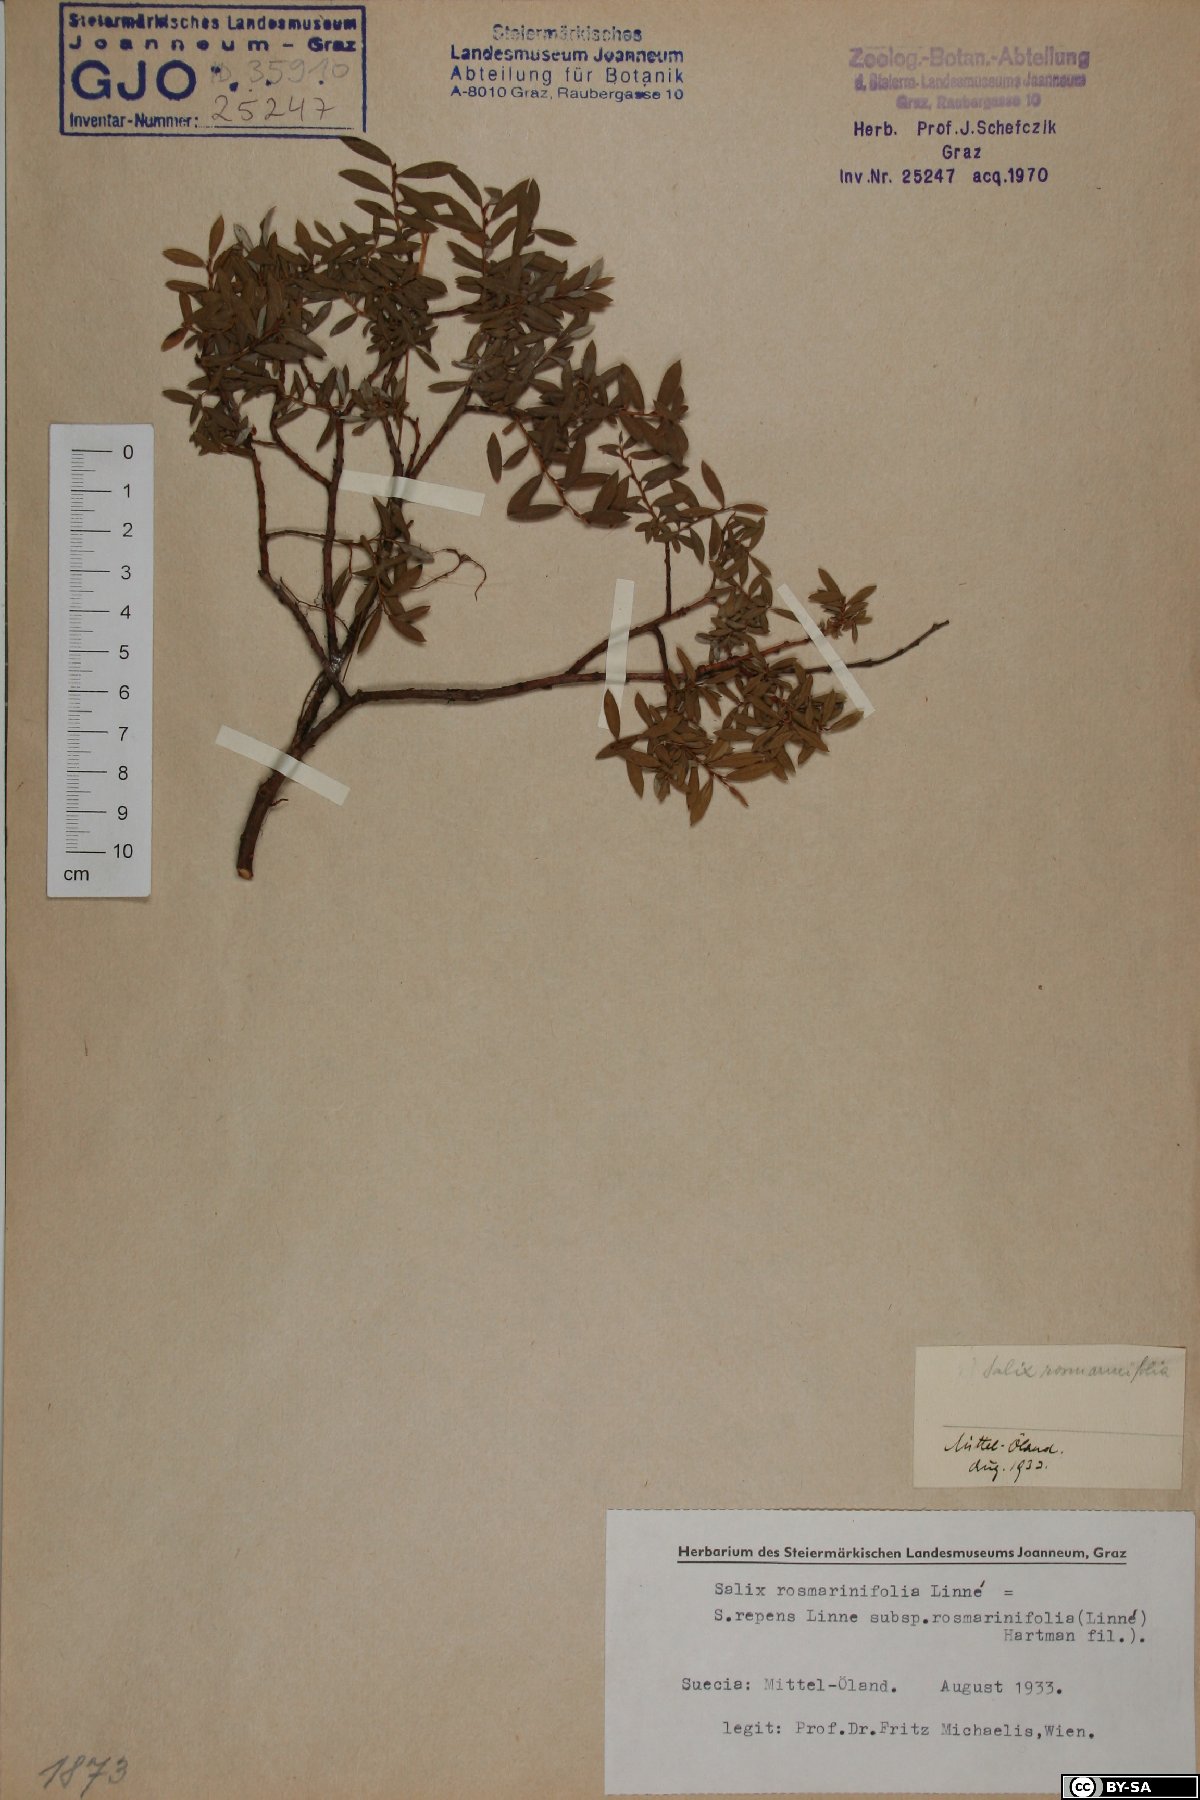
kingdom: Plantae
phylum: Tracheophyta
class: Magnoliopsida
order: Malpighiales
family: Salicaceae
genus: Salix
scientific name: Salix rosmarinifolia
